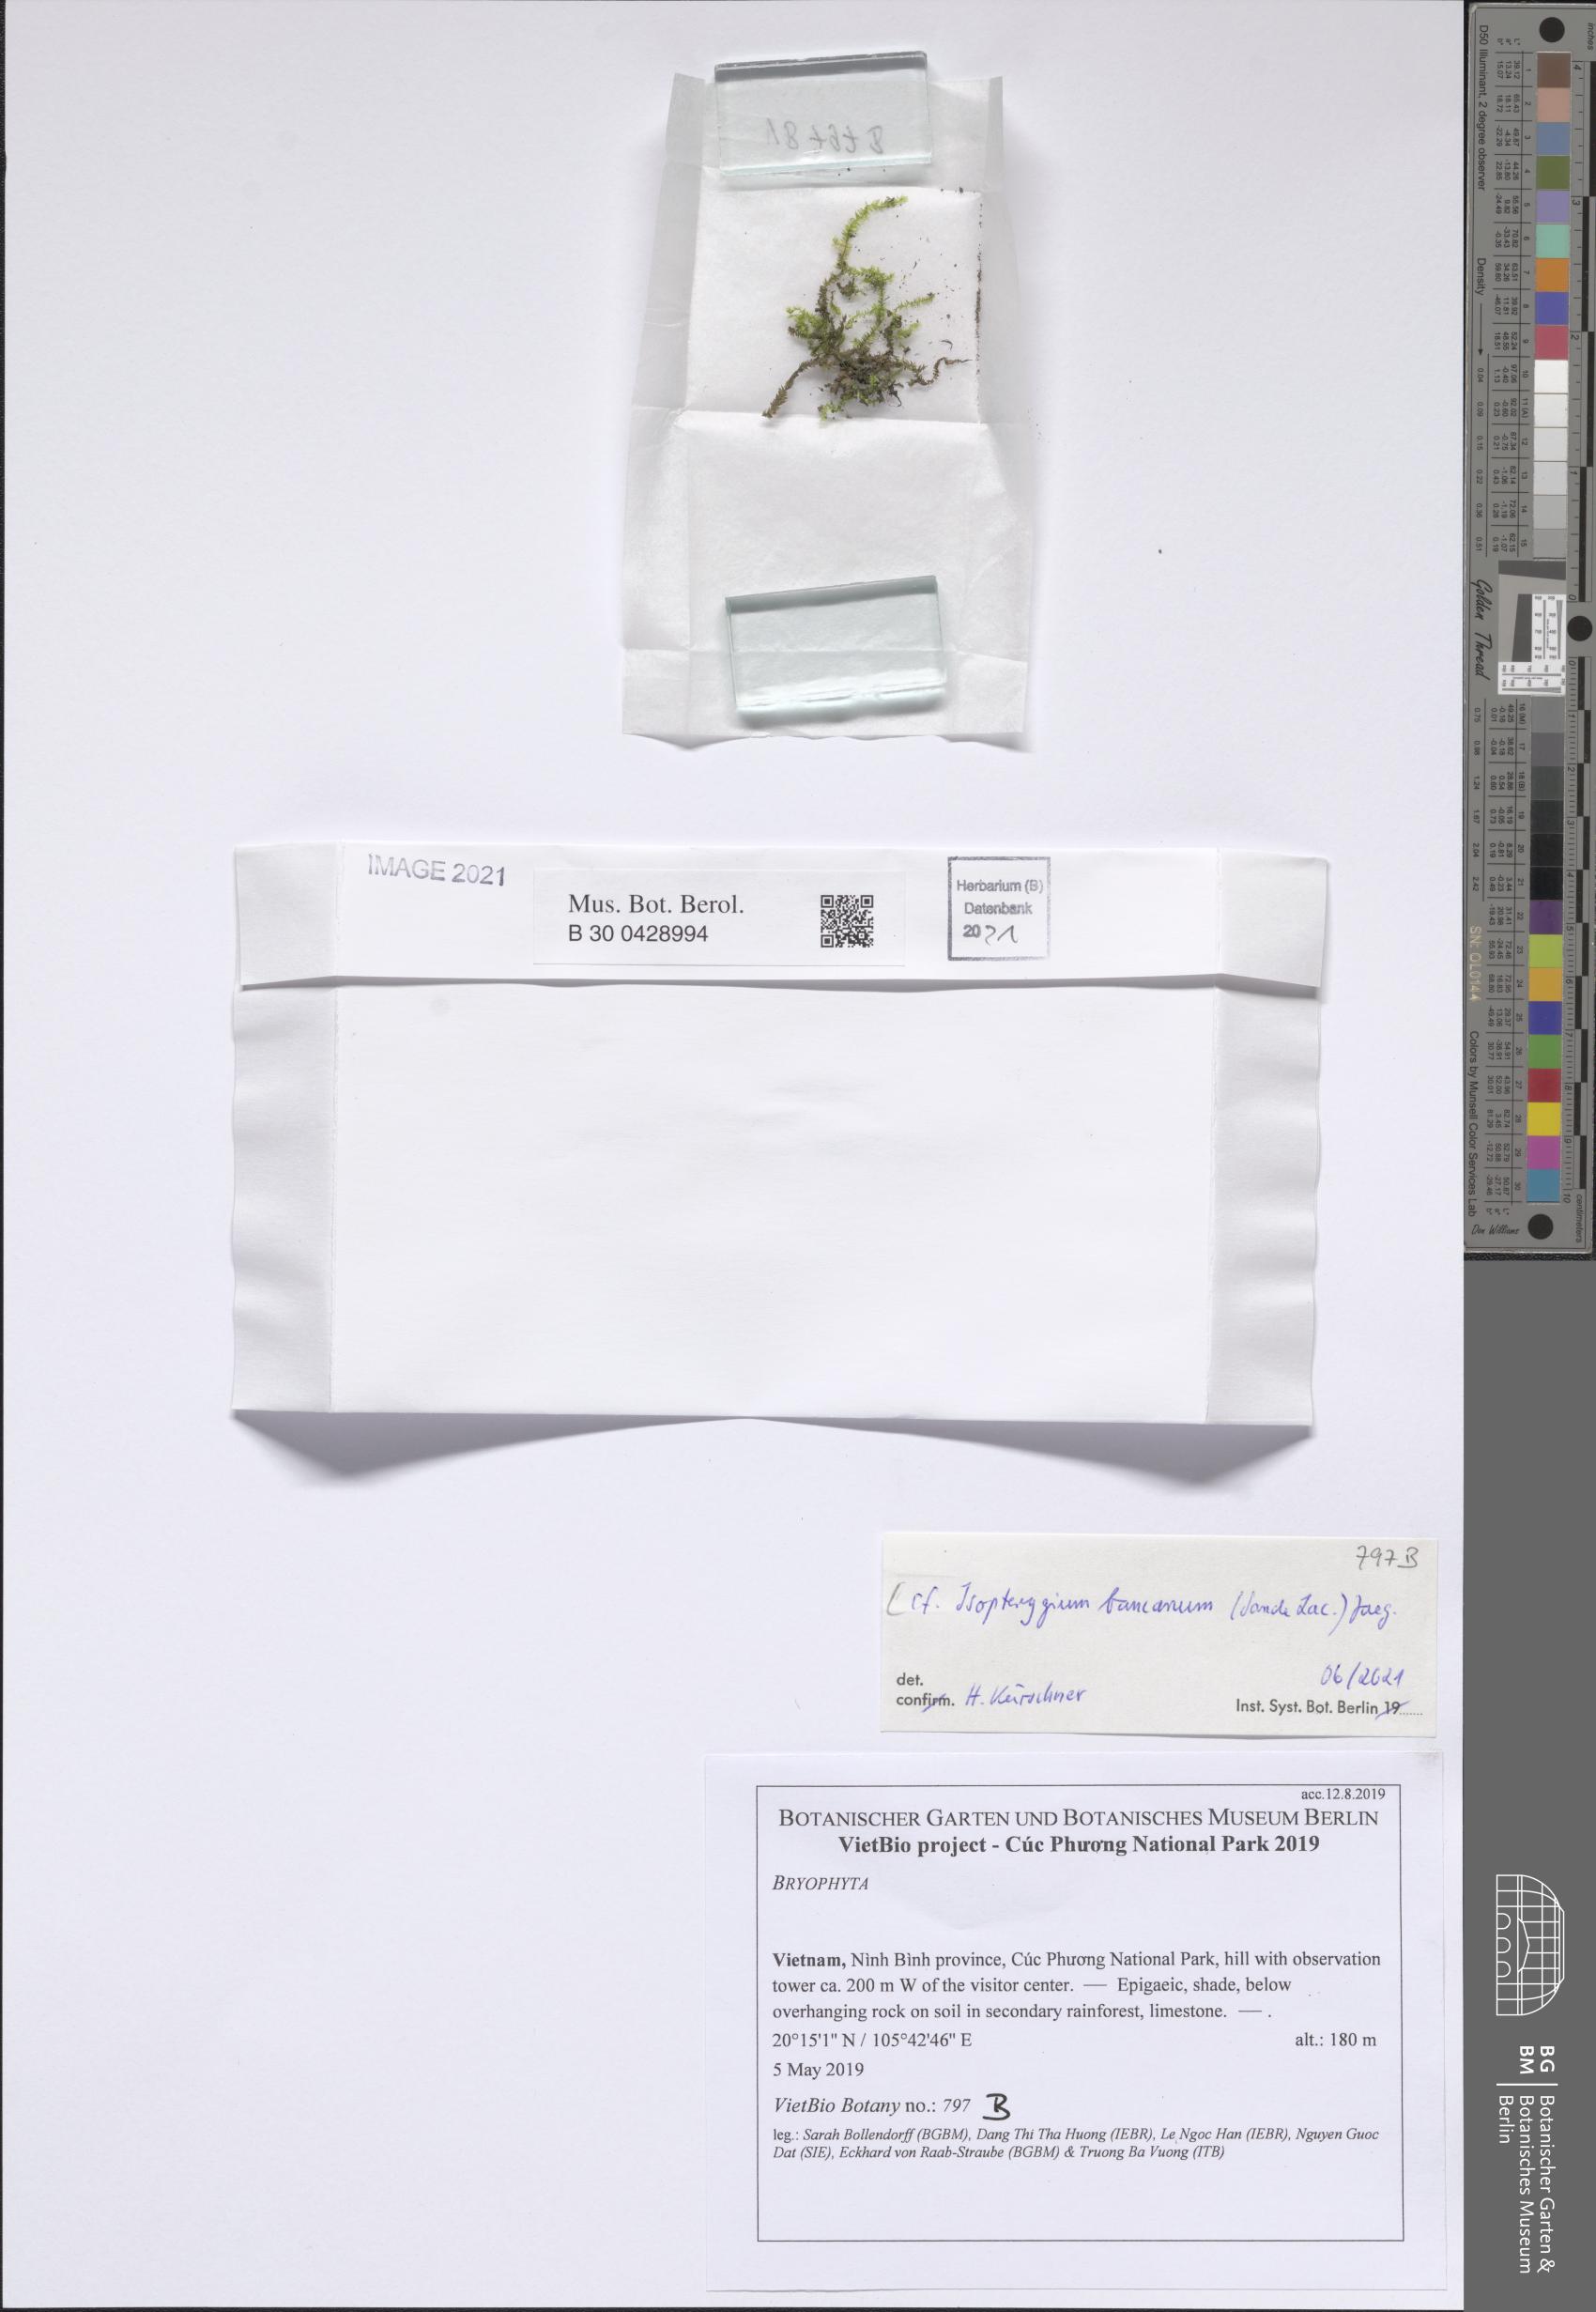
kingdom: Plantae
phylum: Bryophyta
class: Bryopsida
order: Hypnales
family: Pylaisiadelphaceae
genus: Isopterygium
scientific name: Isopterygium bancanum
